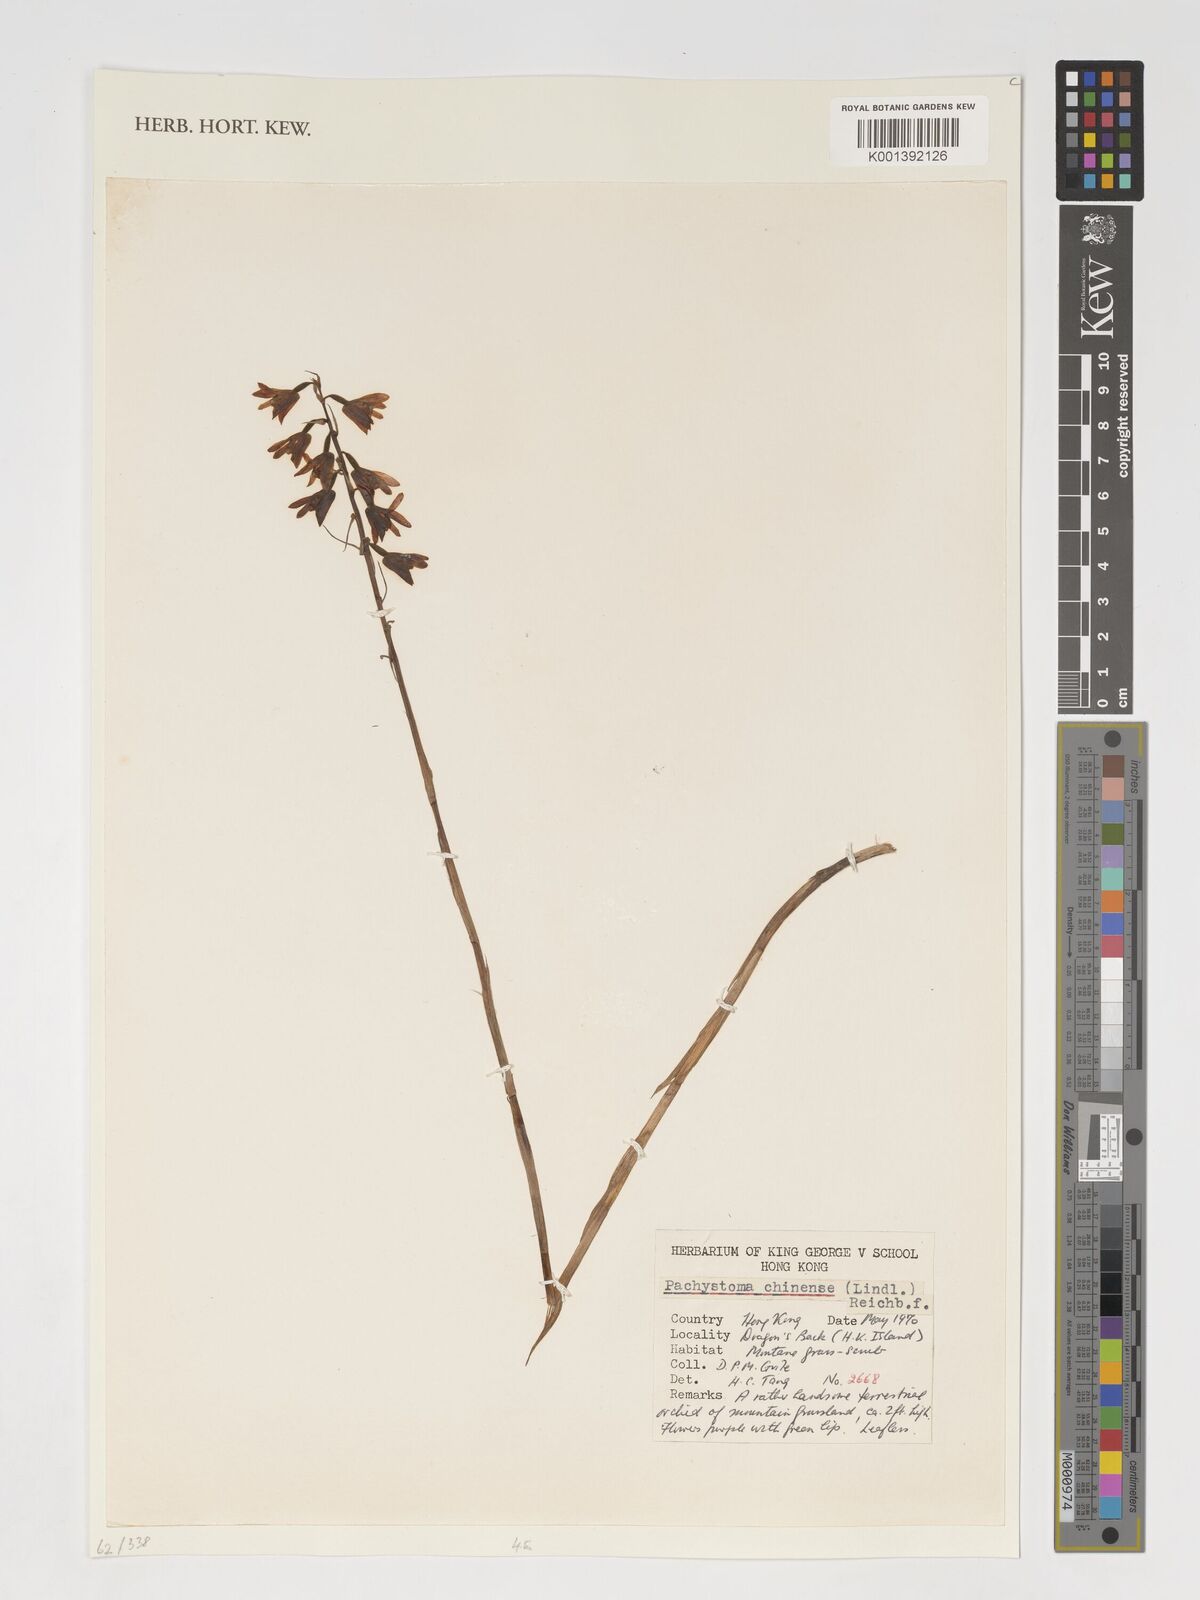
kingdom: Plantae
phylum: Tracheophyta
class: Liliopsida
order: Asparagales
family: Orchidaceae
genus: Pachystoma
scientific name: Pachystoma
